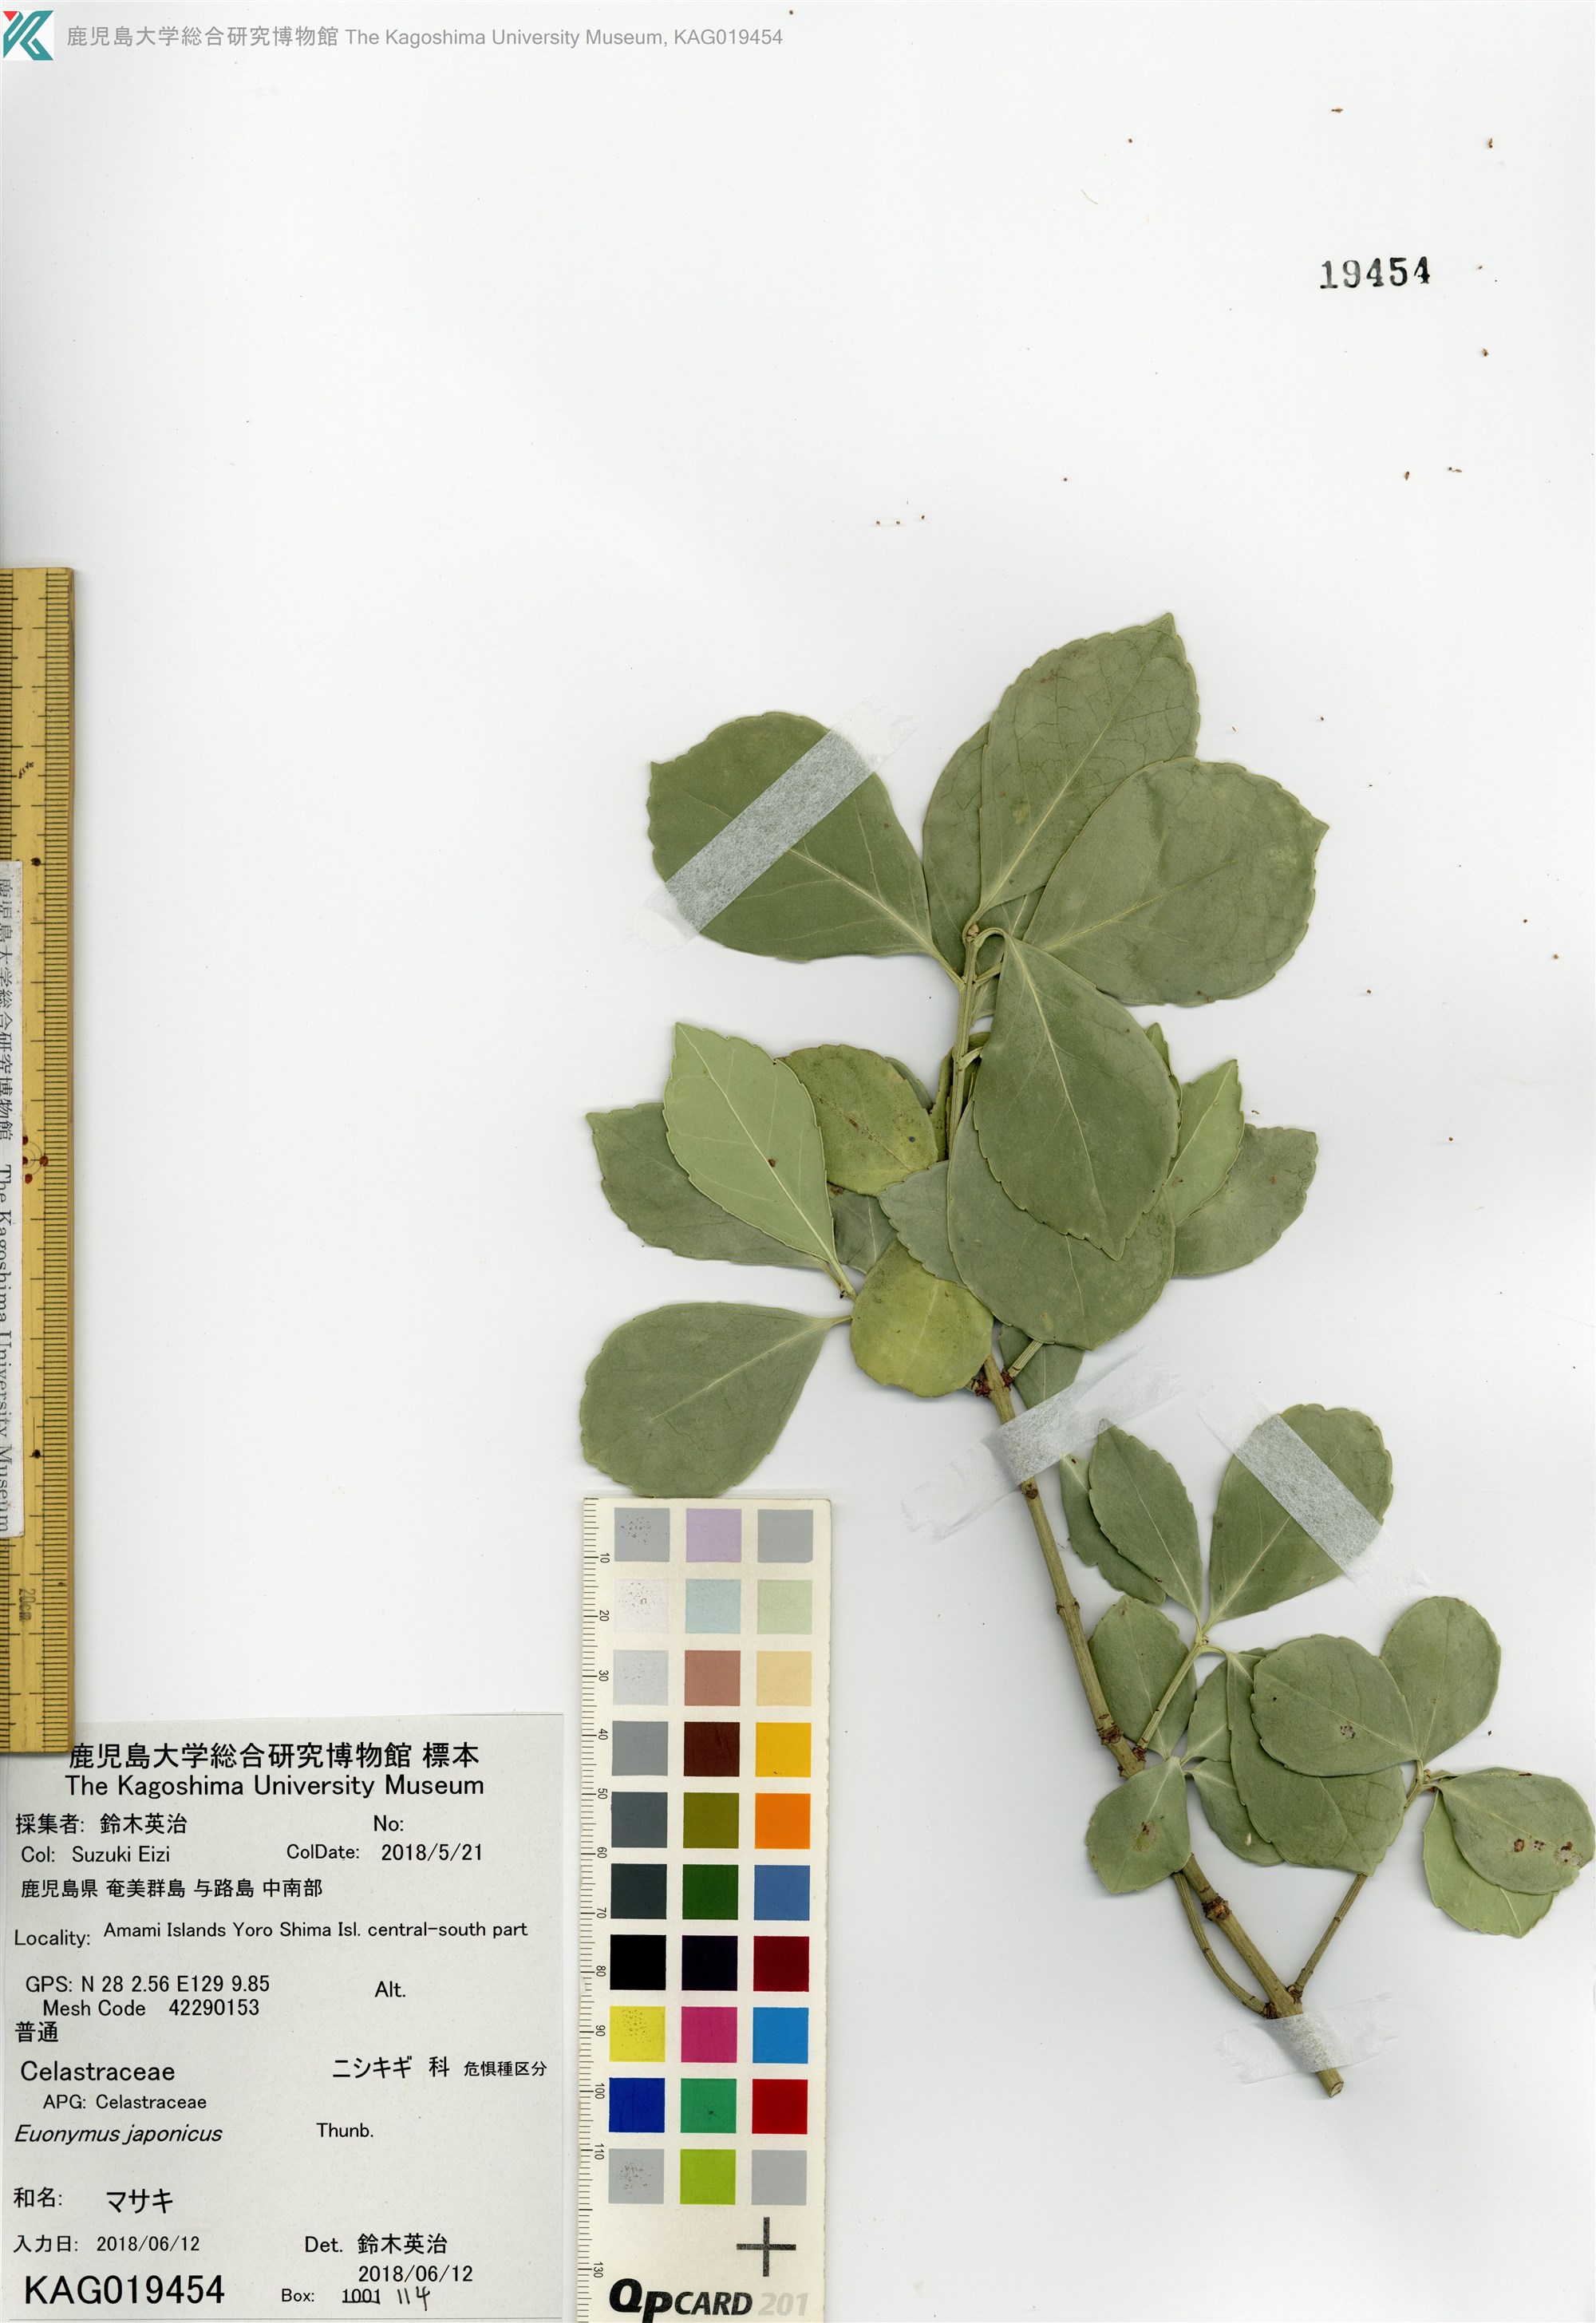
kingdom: Plantae
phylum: Tracheophyta
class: Magnoliopsida
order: Celastrales
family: Celastraceae
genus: Euonymus
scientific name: Euonymus japonicus
